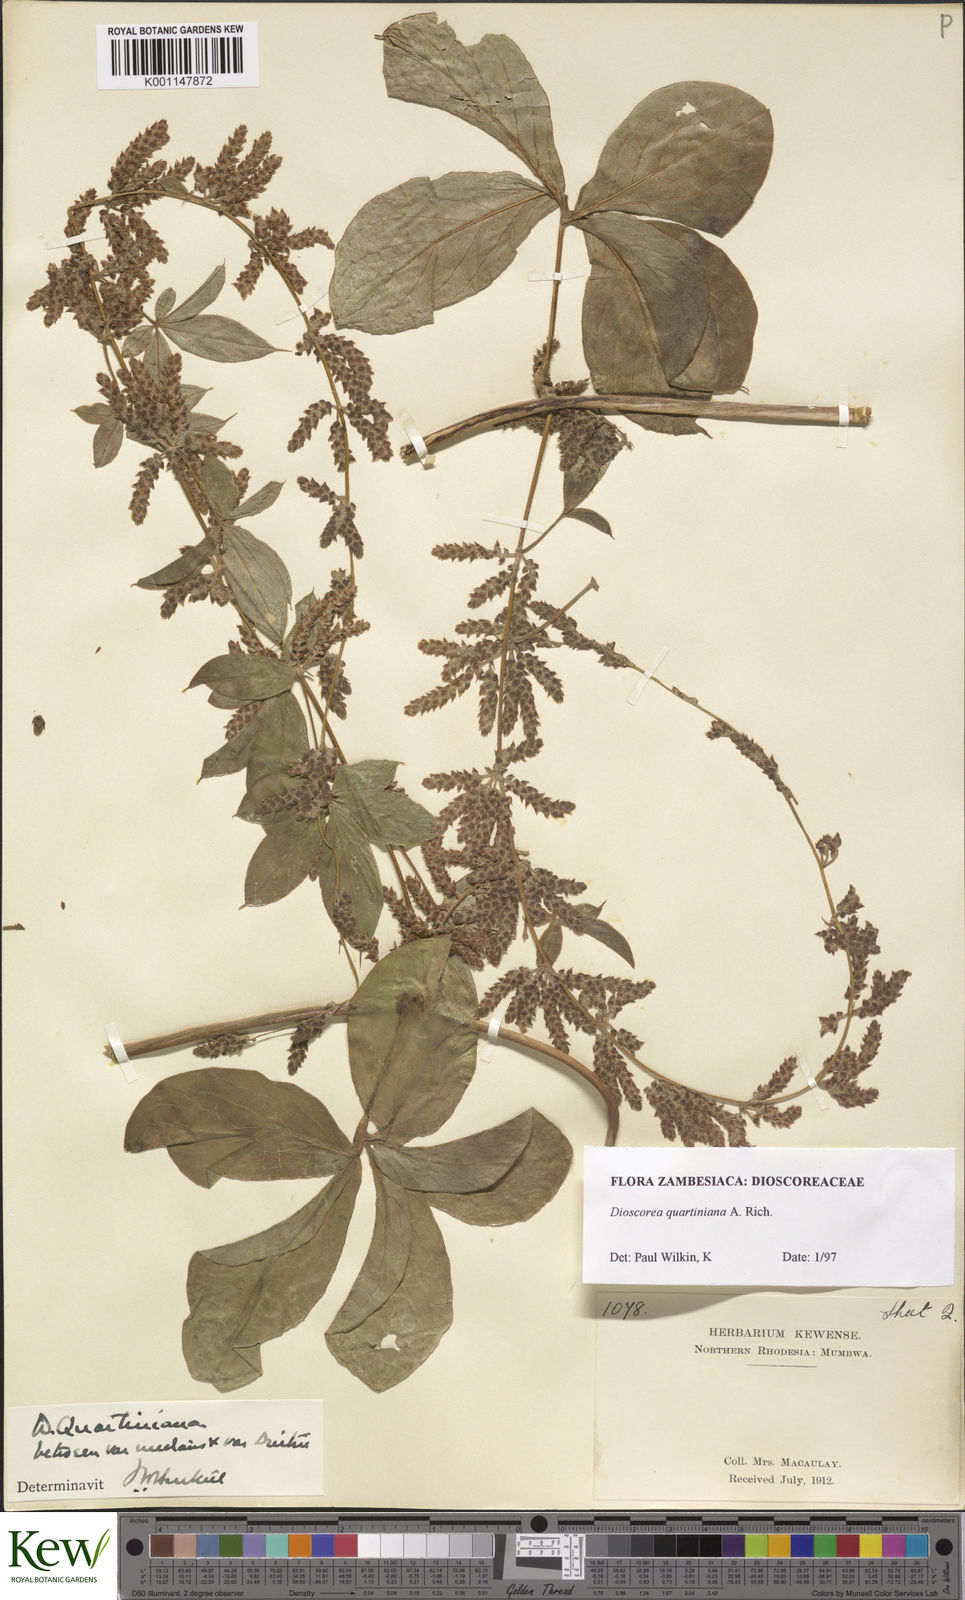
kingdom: Plantae
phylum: Tracheophyta
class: Liliopsida
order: Dioscoreales
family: Dioscoreaceae
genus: Dioscorea
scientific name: Dioscorea quartiniana
